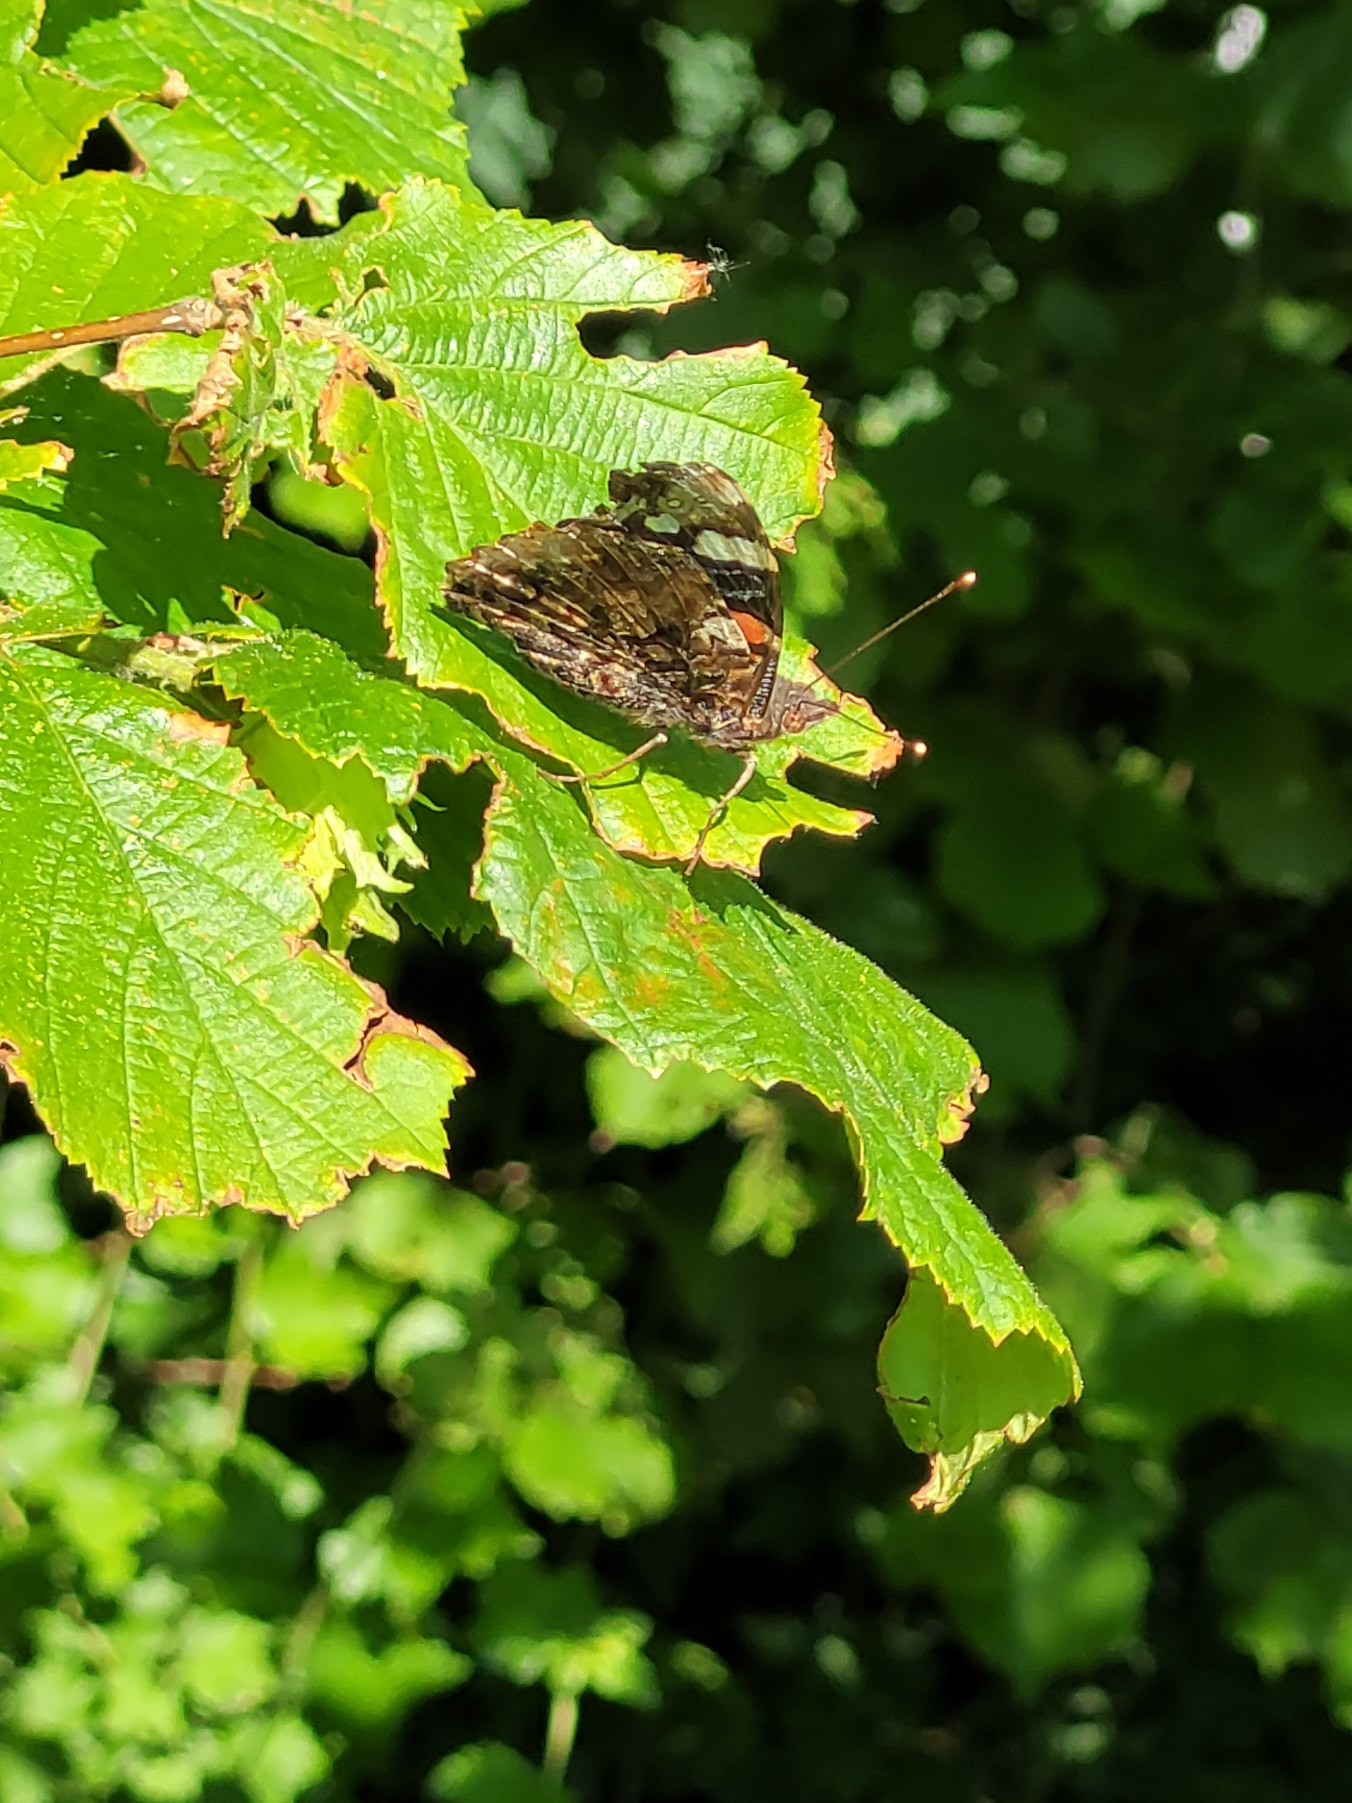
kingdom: Animalia
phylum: Arthropoda
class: Insecta
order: Lepidoptera
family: Nymphalidae
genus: Vanessa
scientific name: Vanessa atalanta
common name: Admiral
